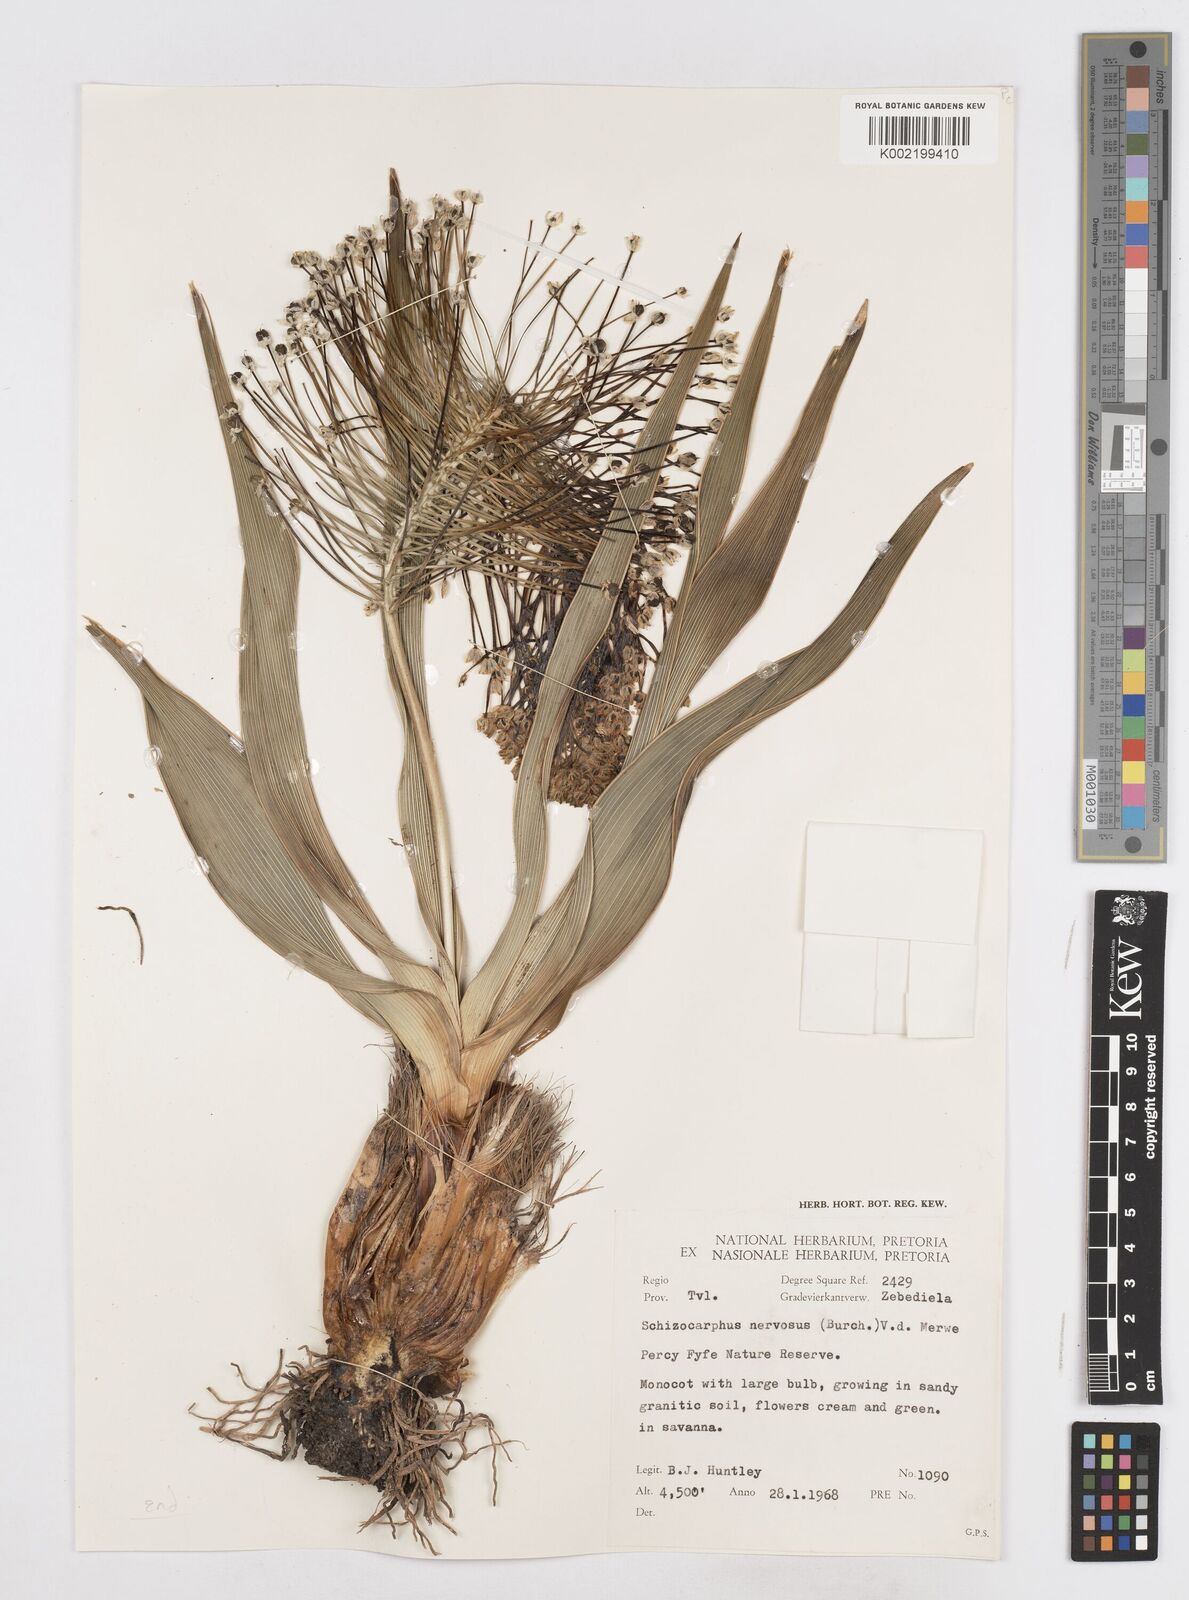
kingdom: Plantae
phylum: Tracheophyta
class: Liliopsida
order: Asparagales
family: Asparagaceae
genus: Schizocarphus
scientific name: Schizocarphus nervosus
